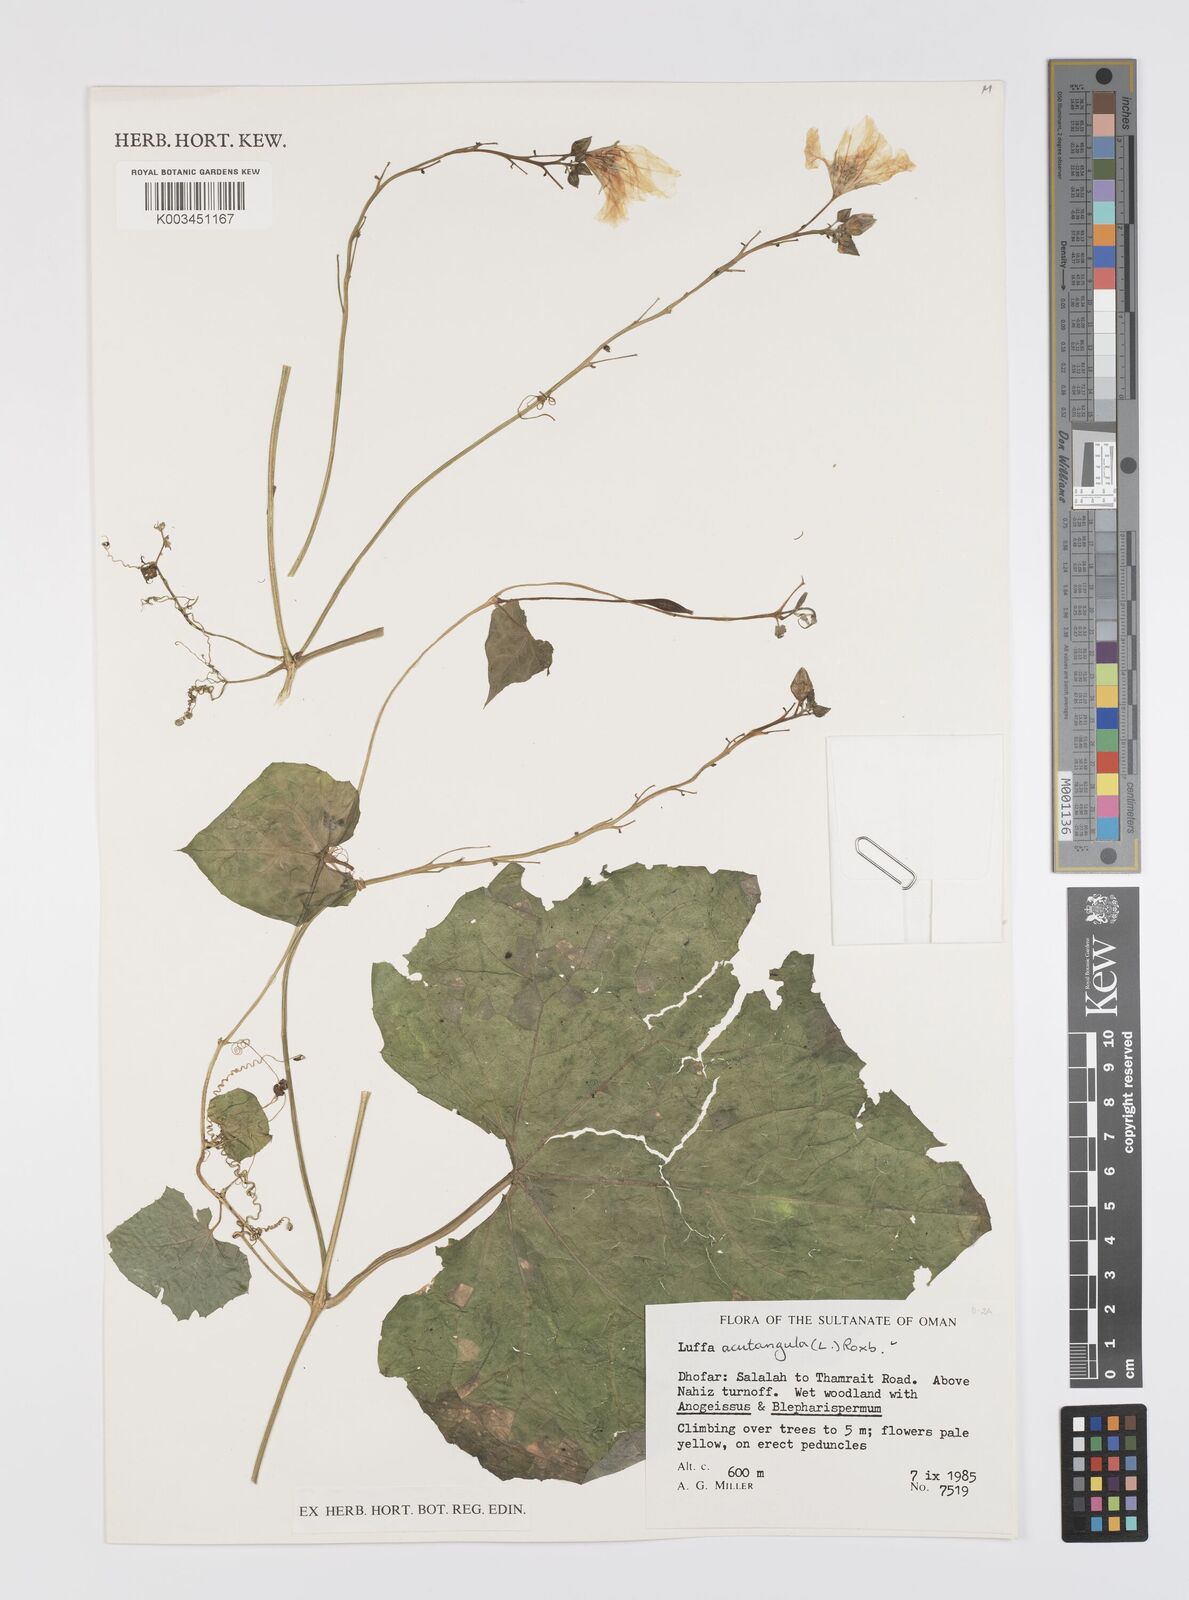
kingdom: Plantae
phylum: Tracheophyta
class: Magnoliopsida
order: Cucurbitales
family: Cucurbitaceae
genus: Luffa
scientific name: Luffa acutangula
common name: Sinkwa towelsponge
